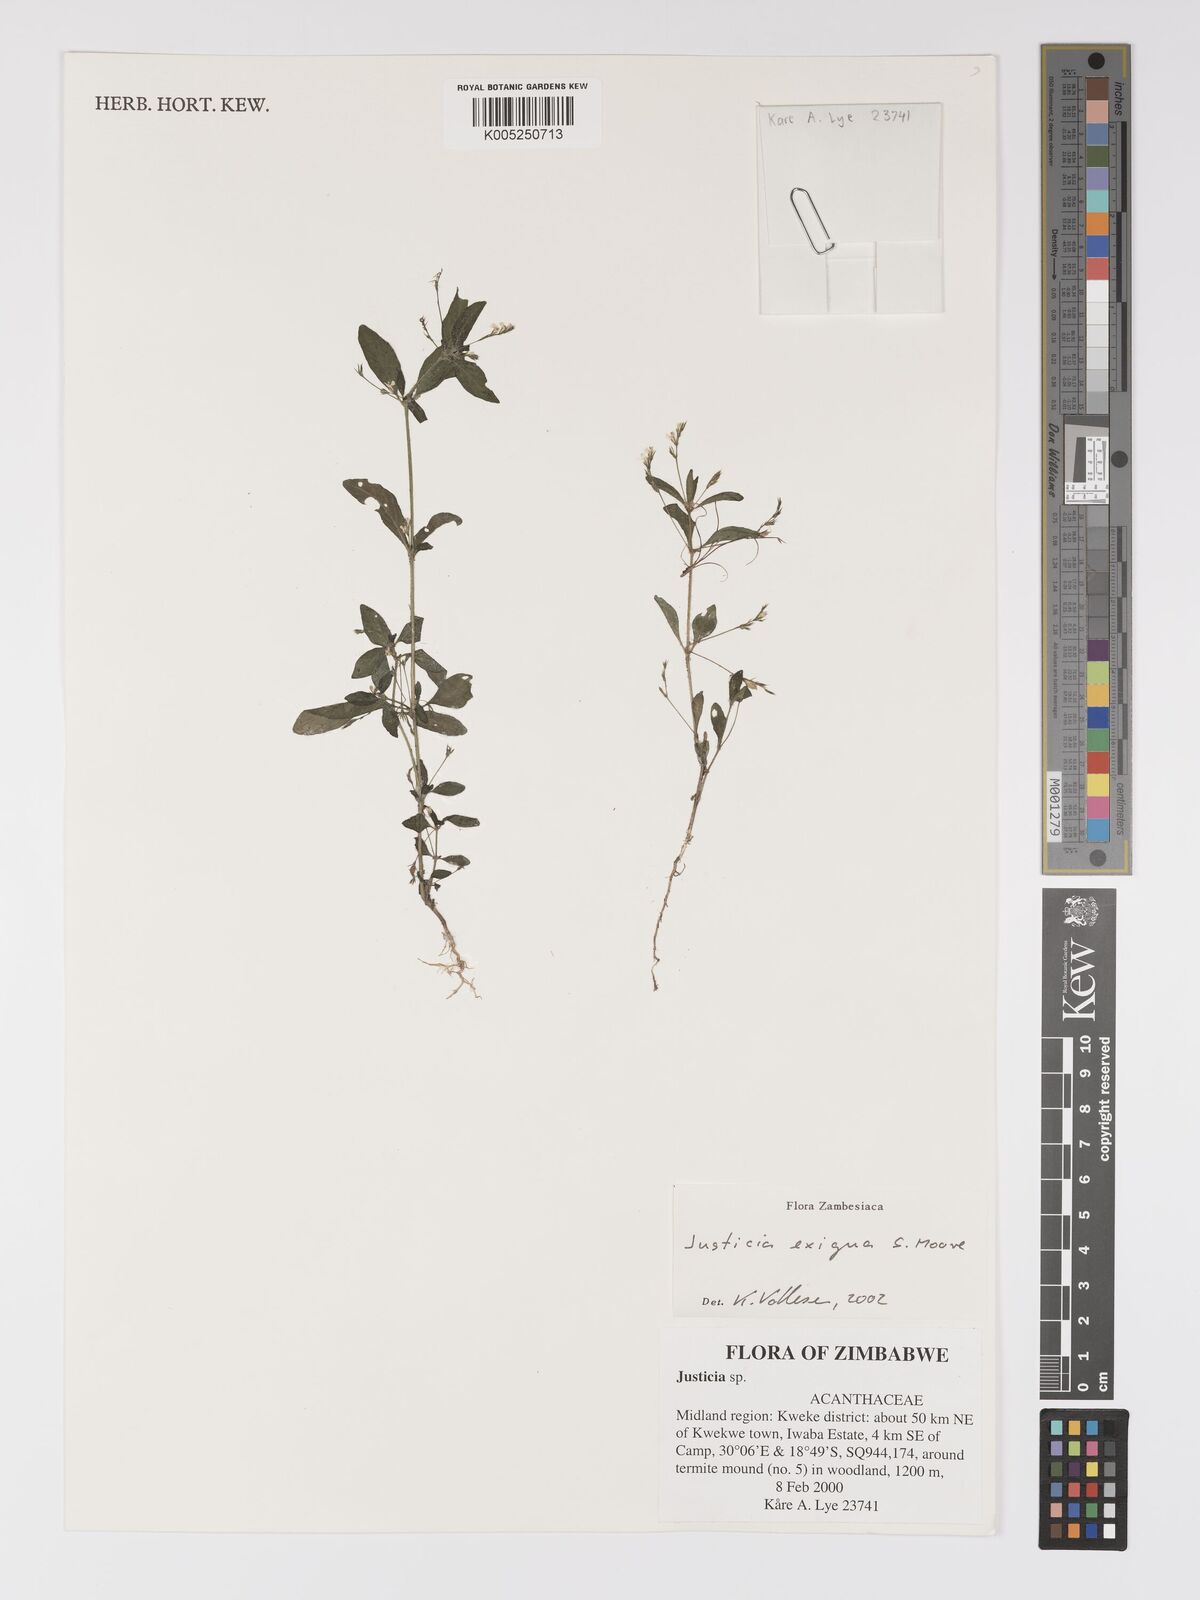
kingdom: Plantae
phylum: Tracheophyta
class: Magnoliopsida
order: Lamiales
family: Acanthaceae
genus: Justicia
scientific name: Justicia exigua
